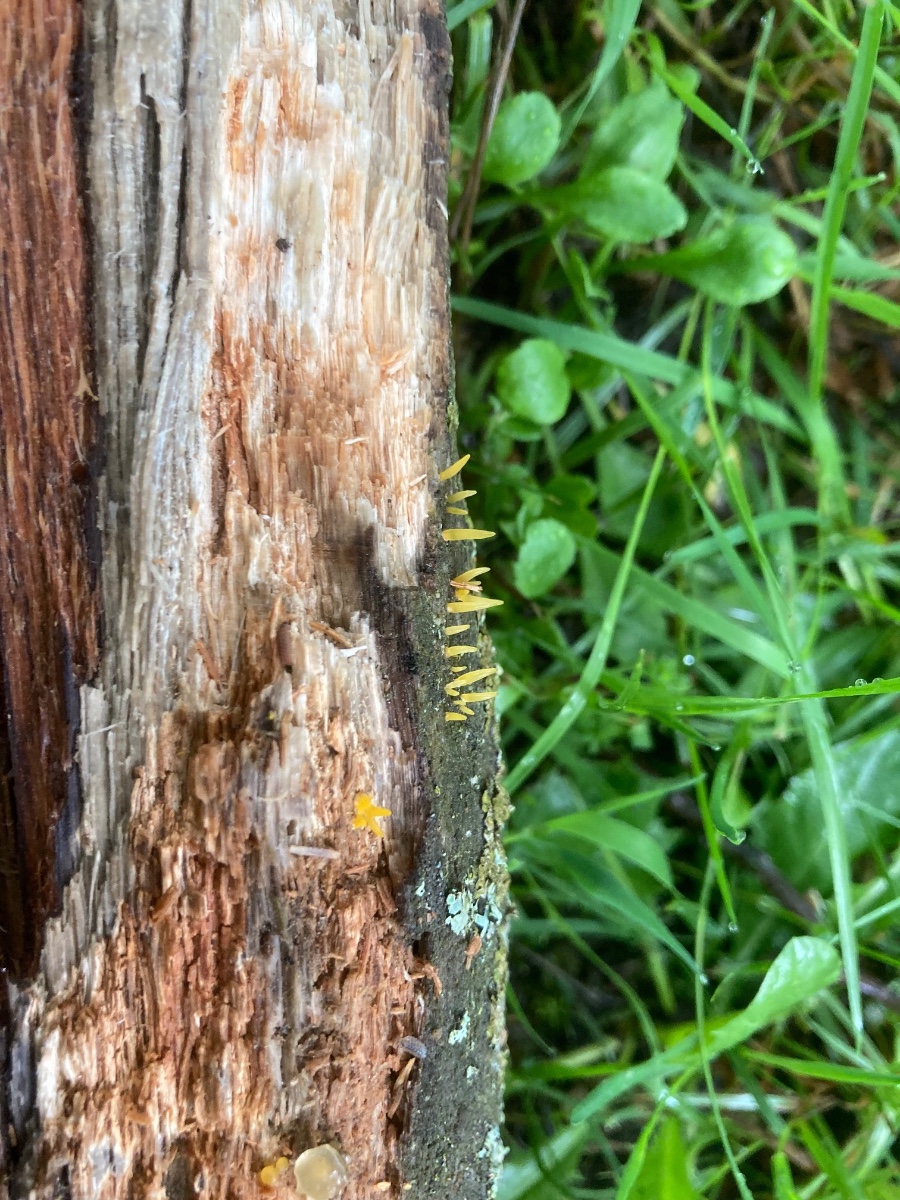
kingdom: Fungi
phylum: Basidiomycota
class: Dacrymycetes
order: Dacrymycetales
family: Dacrymycetaceae
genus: Calocera
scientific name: Calocera cornea
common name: liden guldgaffel
